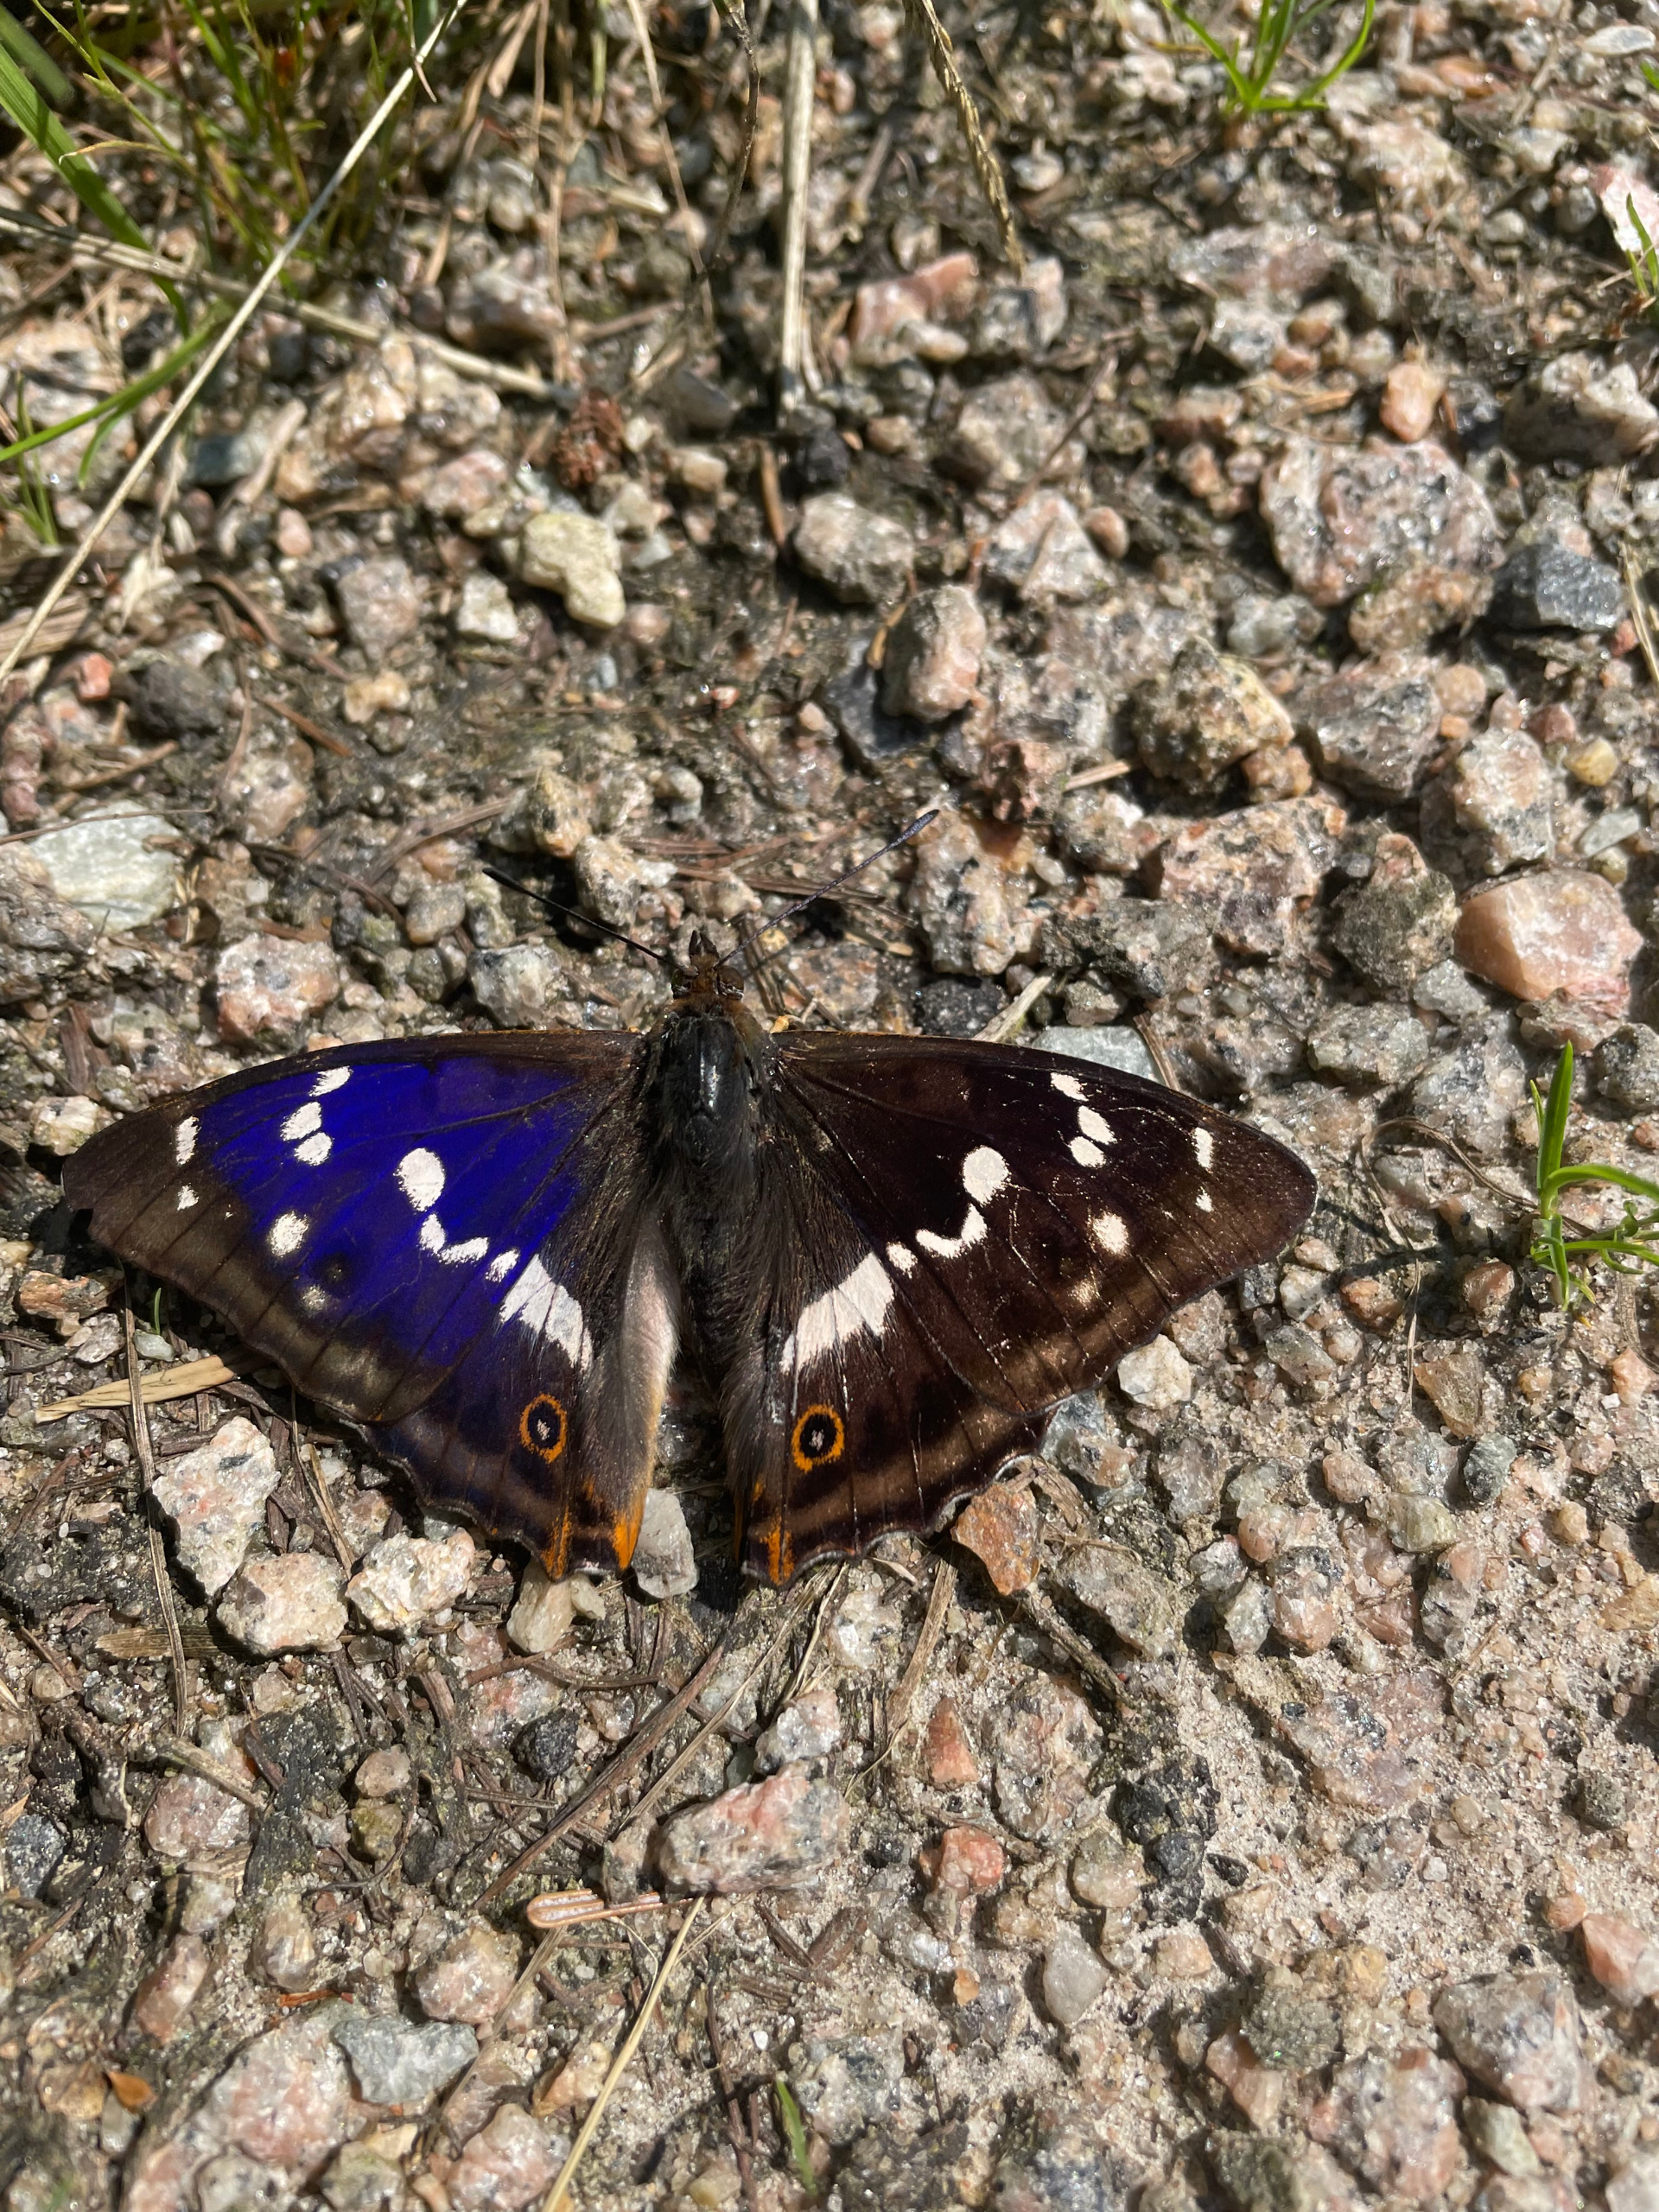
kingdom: Animalia
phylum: Arthropoda
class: Insecta
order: Lepidoptera
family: Nymphalidae
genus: Apatura
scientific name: Apatura iris
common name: Iris
